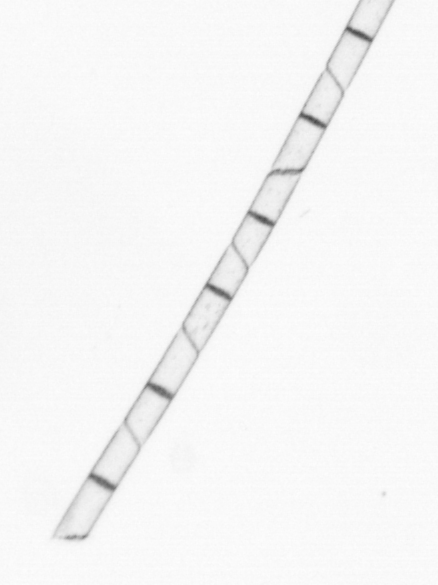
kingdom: Chromista
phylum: Ochrophyta
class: Bacillariophyceae
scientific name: Bacillariophyceae
